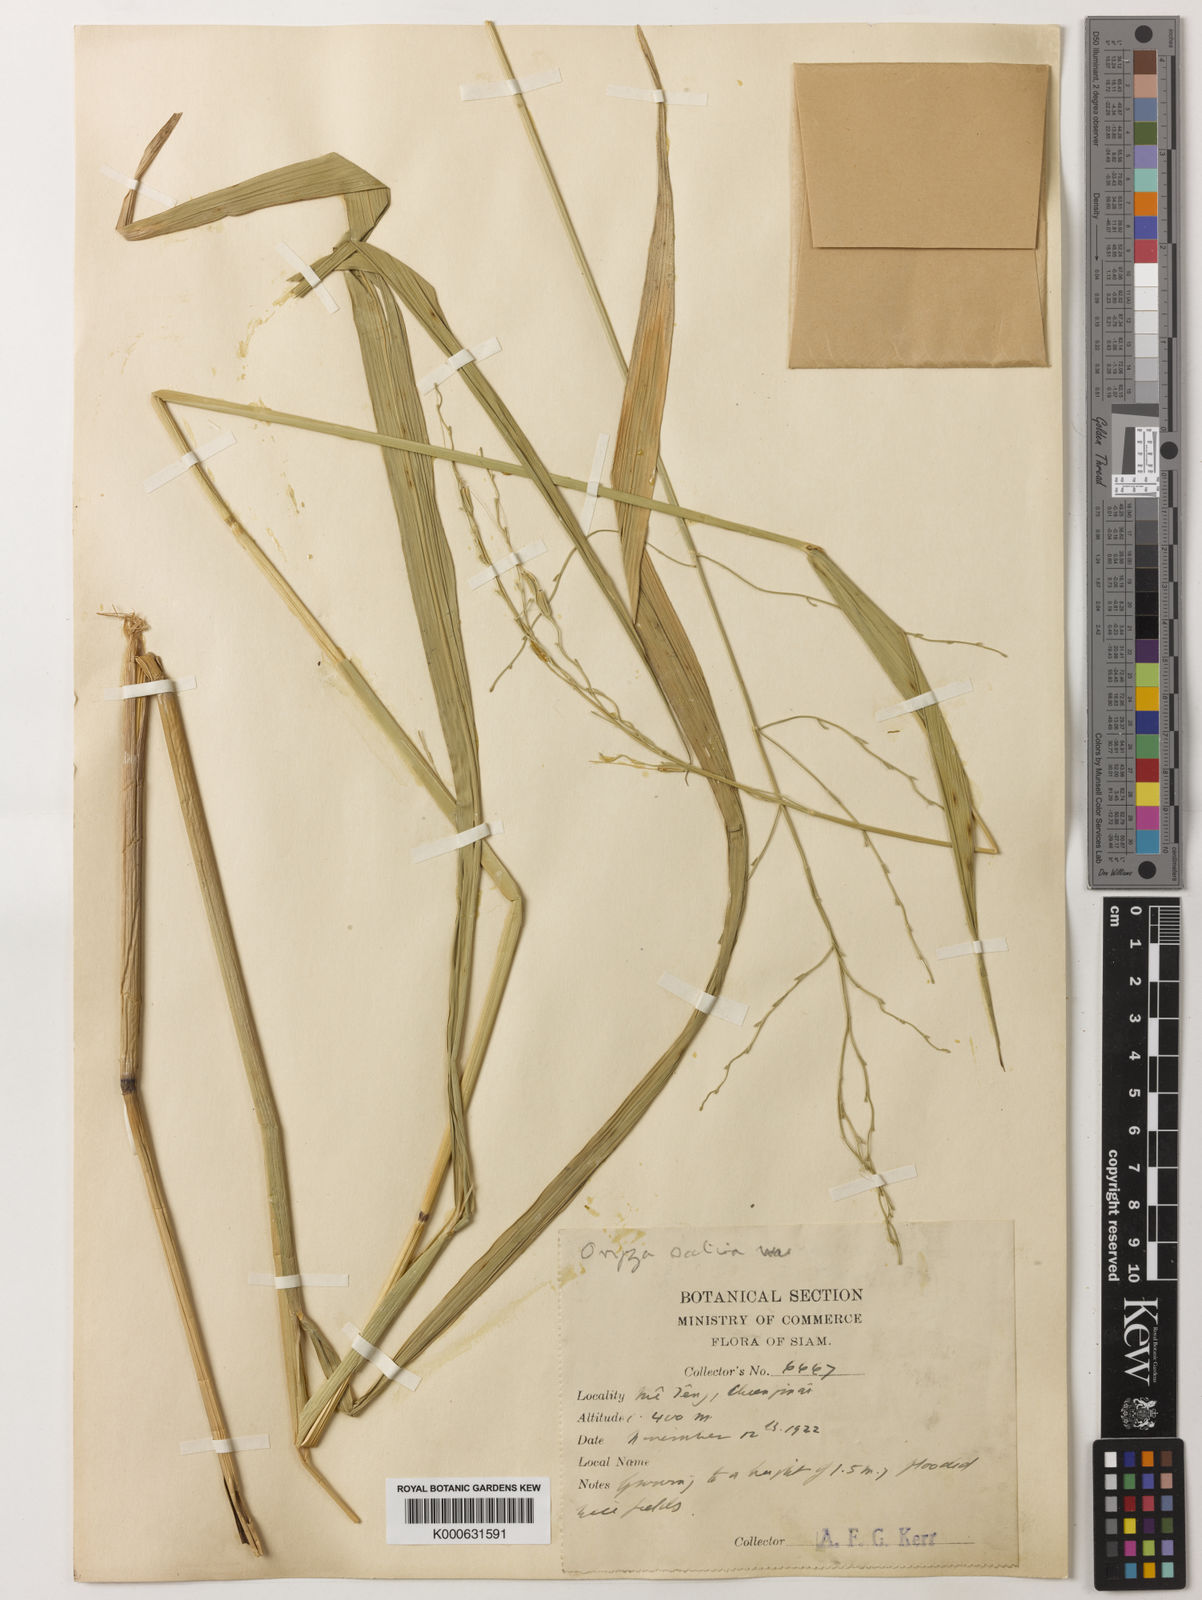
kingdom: Plantae
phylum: Tracheophyta
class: Liliopsida
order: Poales
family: Poaceae
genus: Oryza
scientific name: Oryza rufipogon
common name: Red rice
